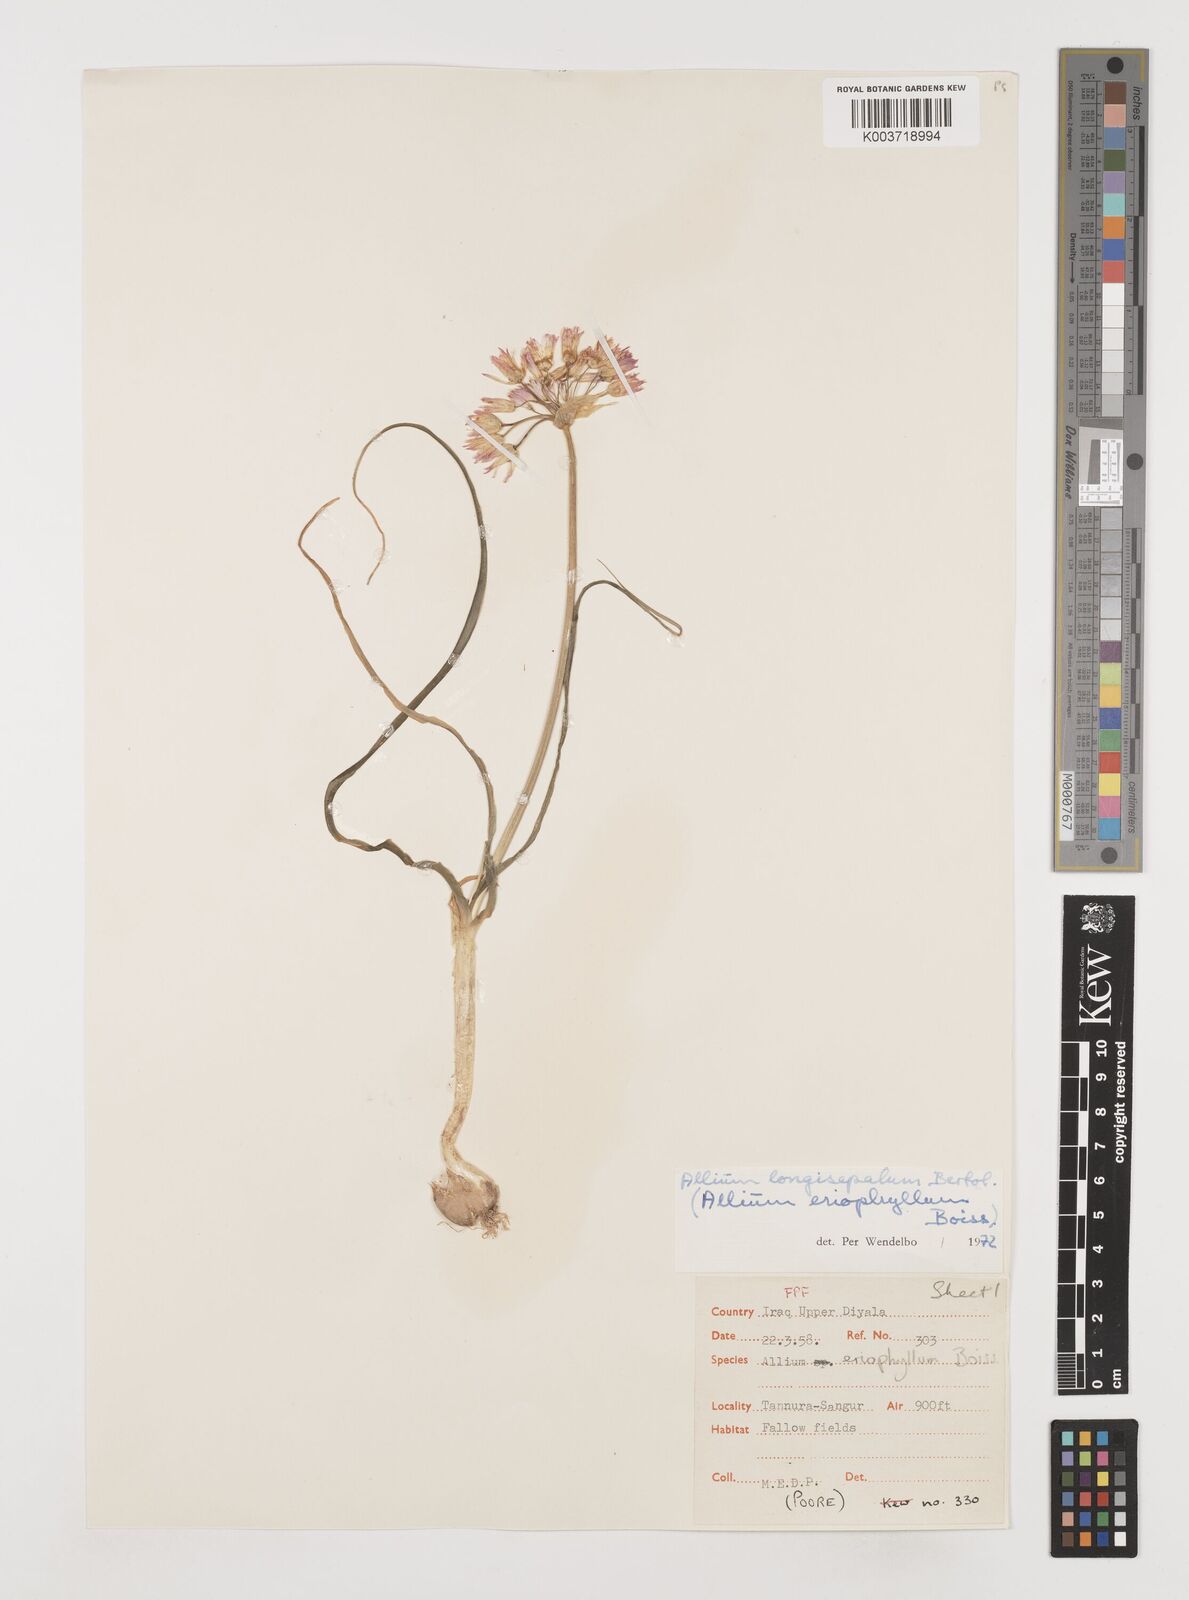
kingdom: Plantae
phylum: Tracheophyta
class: Liliopsida
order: Asparagales
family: Amaryllidaceae
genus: Allium
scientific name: Allium longisepalum
